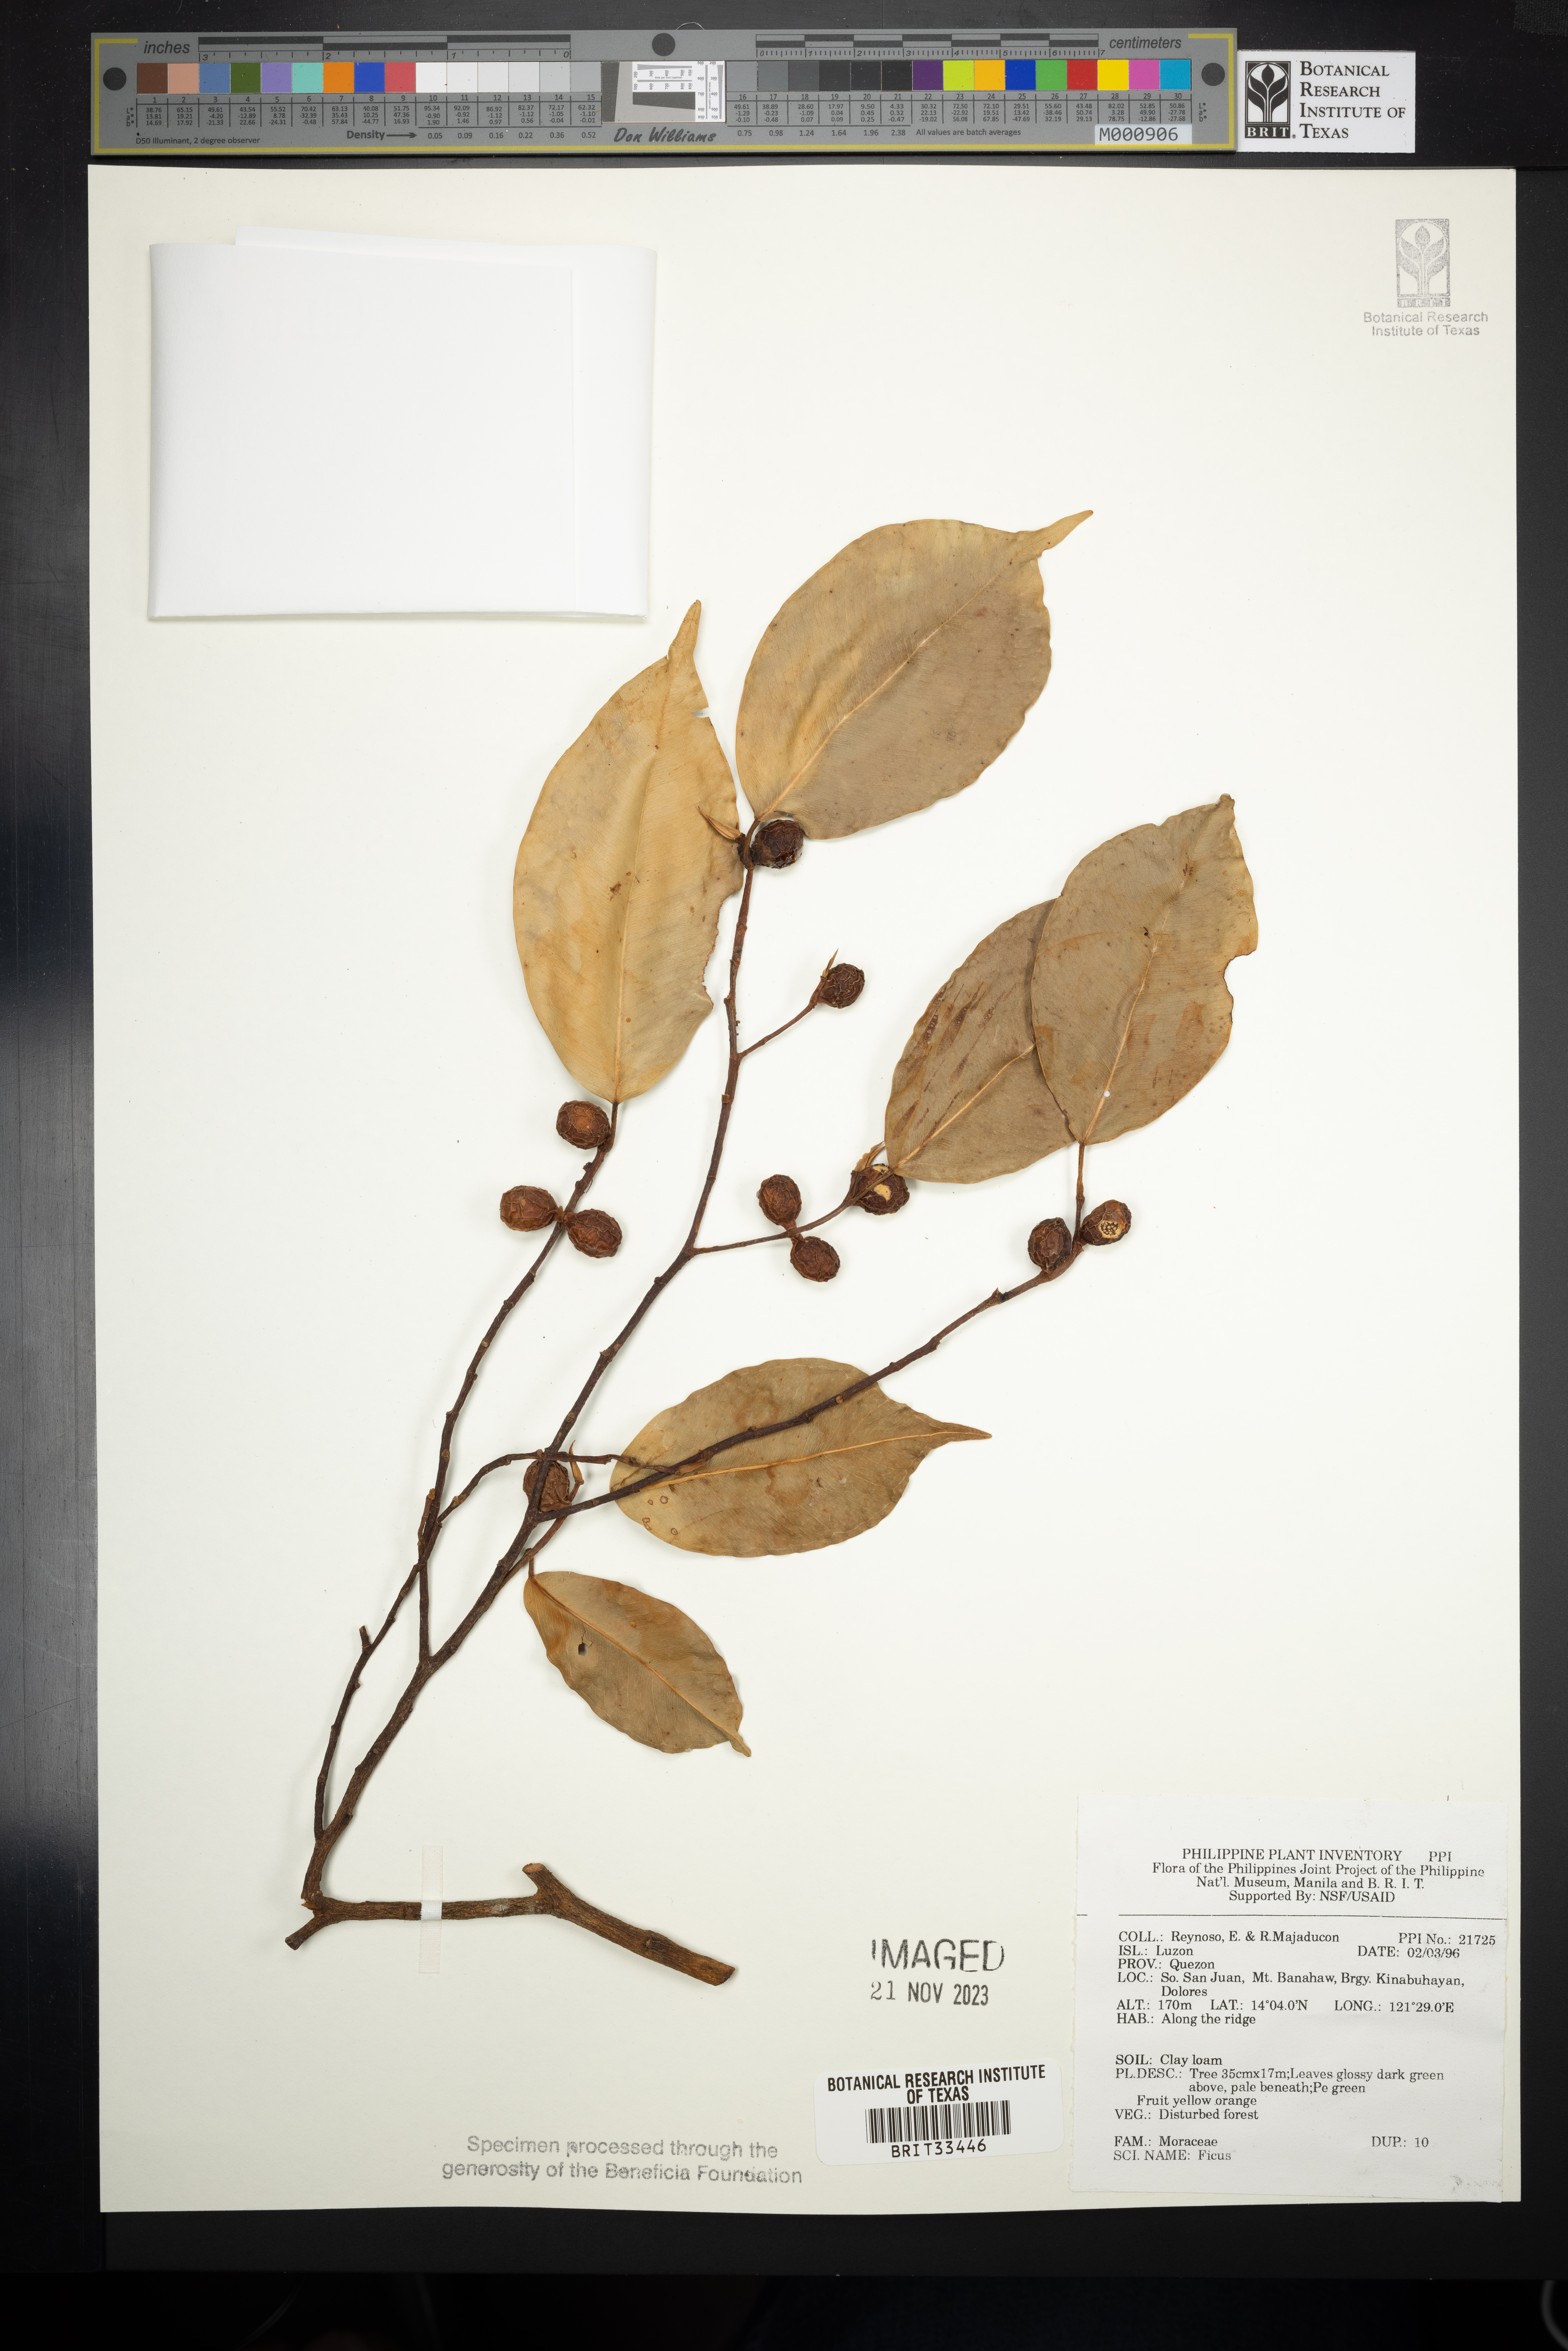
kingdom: Plantae
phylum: Tracheophyta
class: Magnoliopsida
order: Rosales
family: Moraceae
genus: Ficus
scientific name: Ficus
